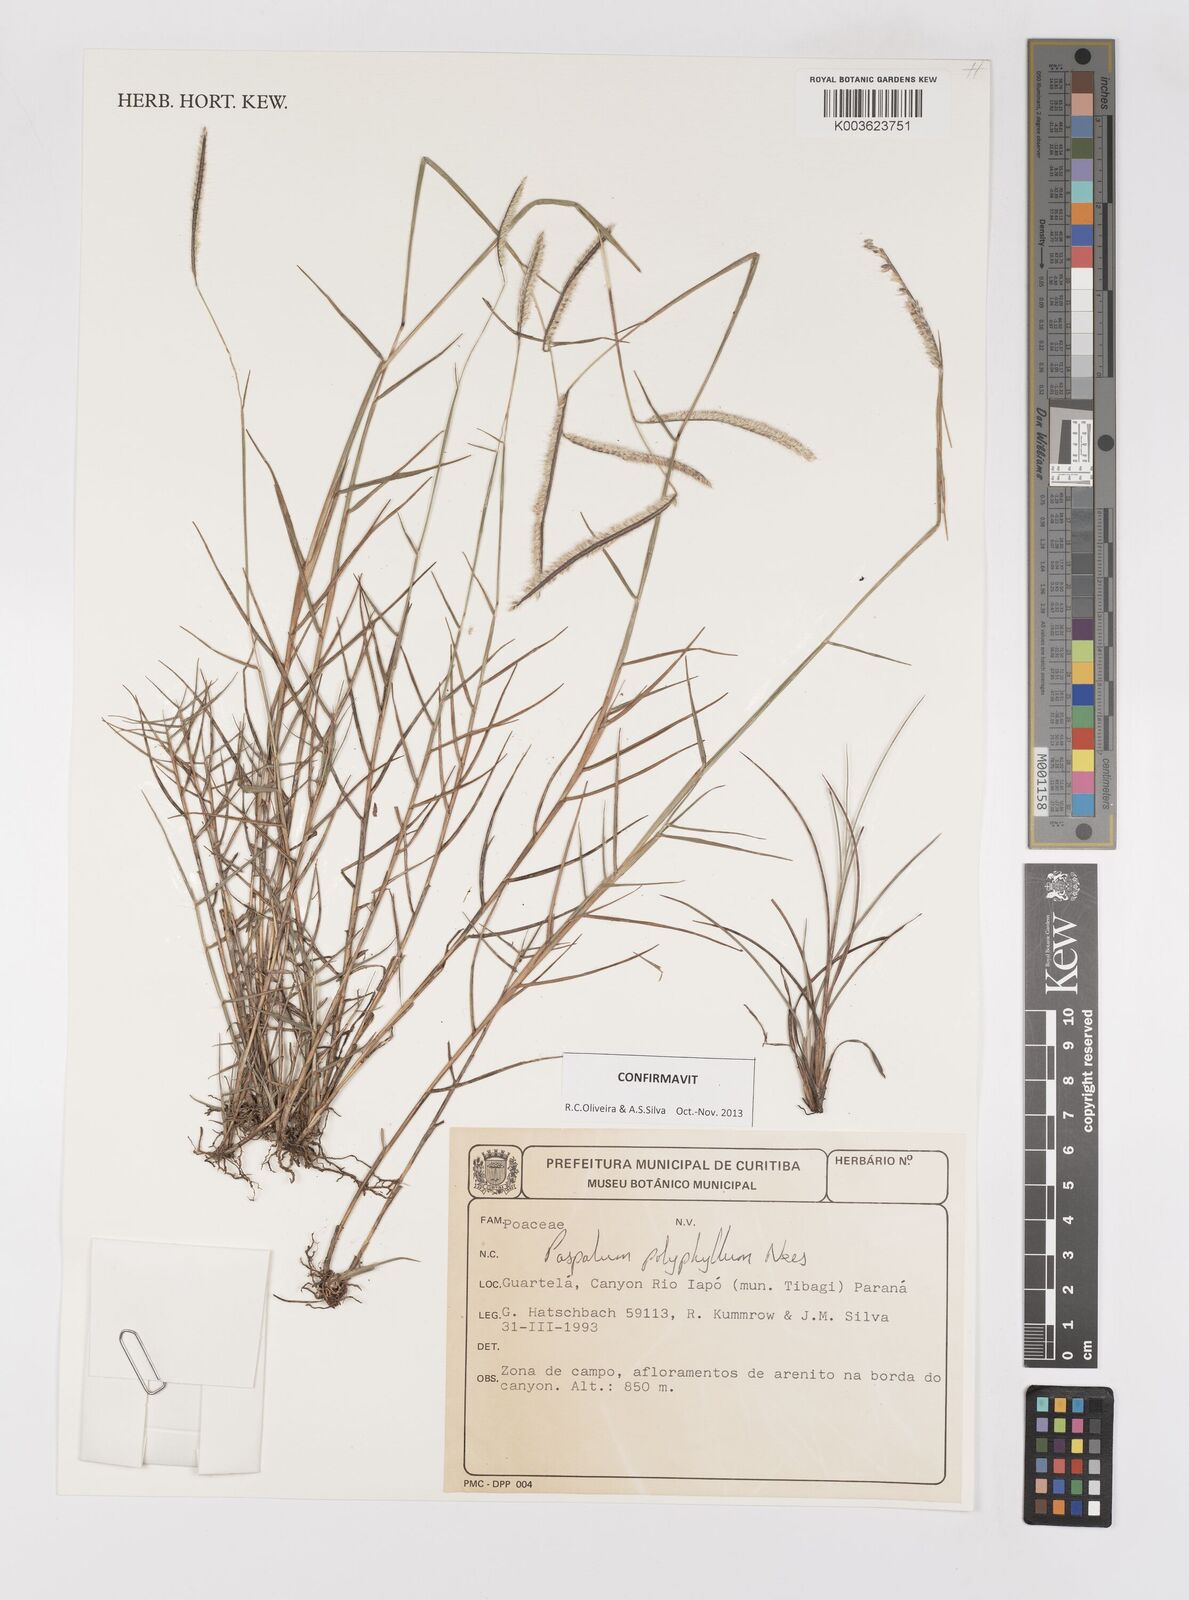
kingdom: Plantae
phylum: Tracheophyta
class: Liliopsida
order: Poales
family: Poaceae
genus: Paspalum
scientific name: Paspalum polyphyllum
